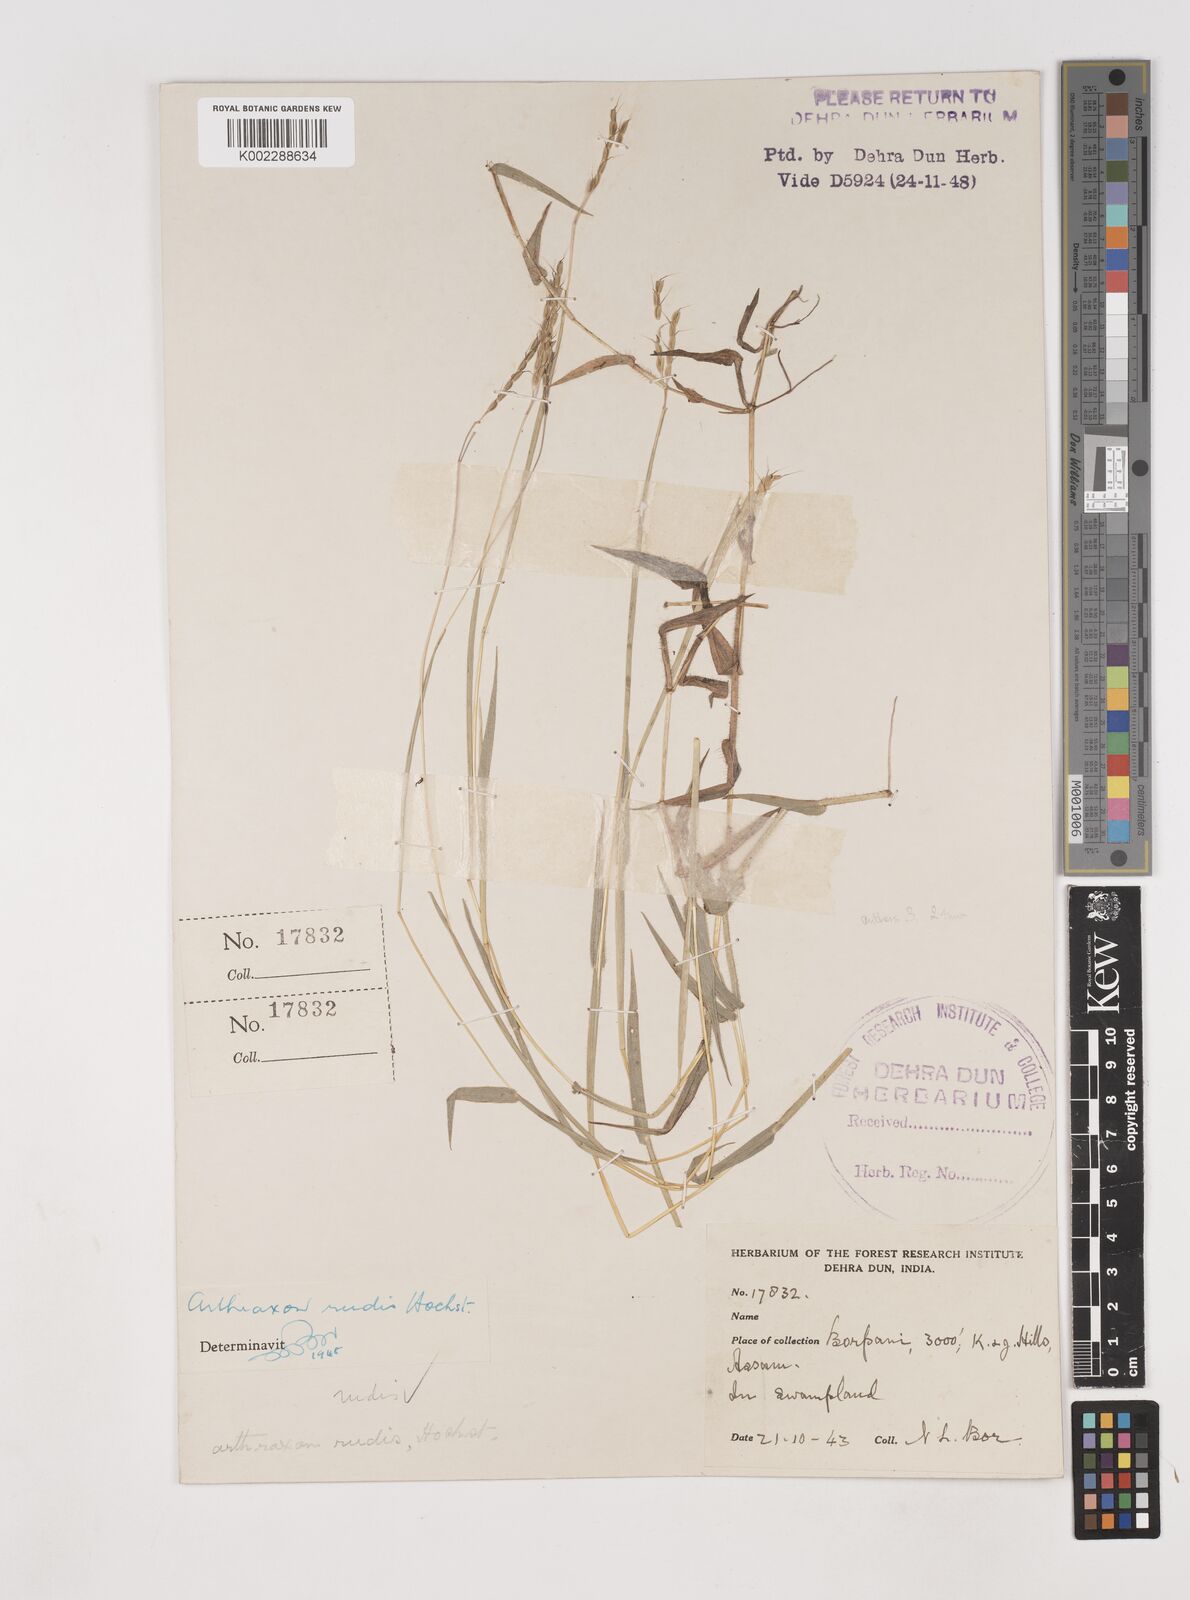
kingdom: Plantae
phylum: Tracheophyta
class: Liliopsida
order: Poales
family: Poaceae
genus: Arthraxon
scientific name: Arthraxon castratus
